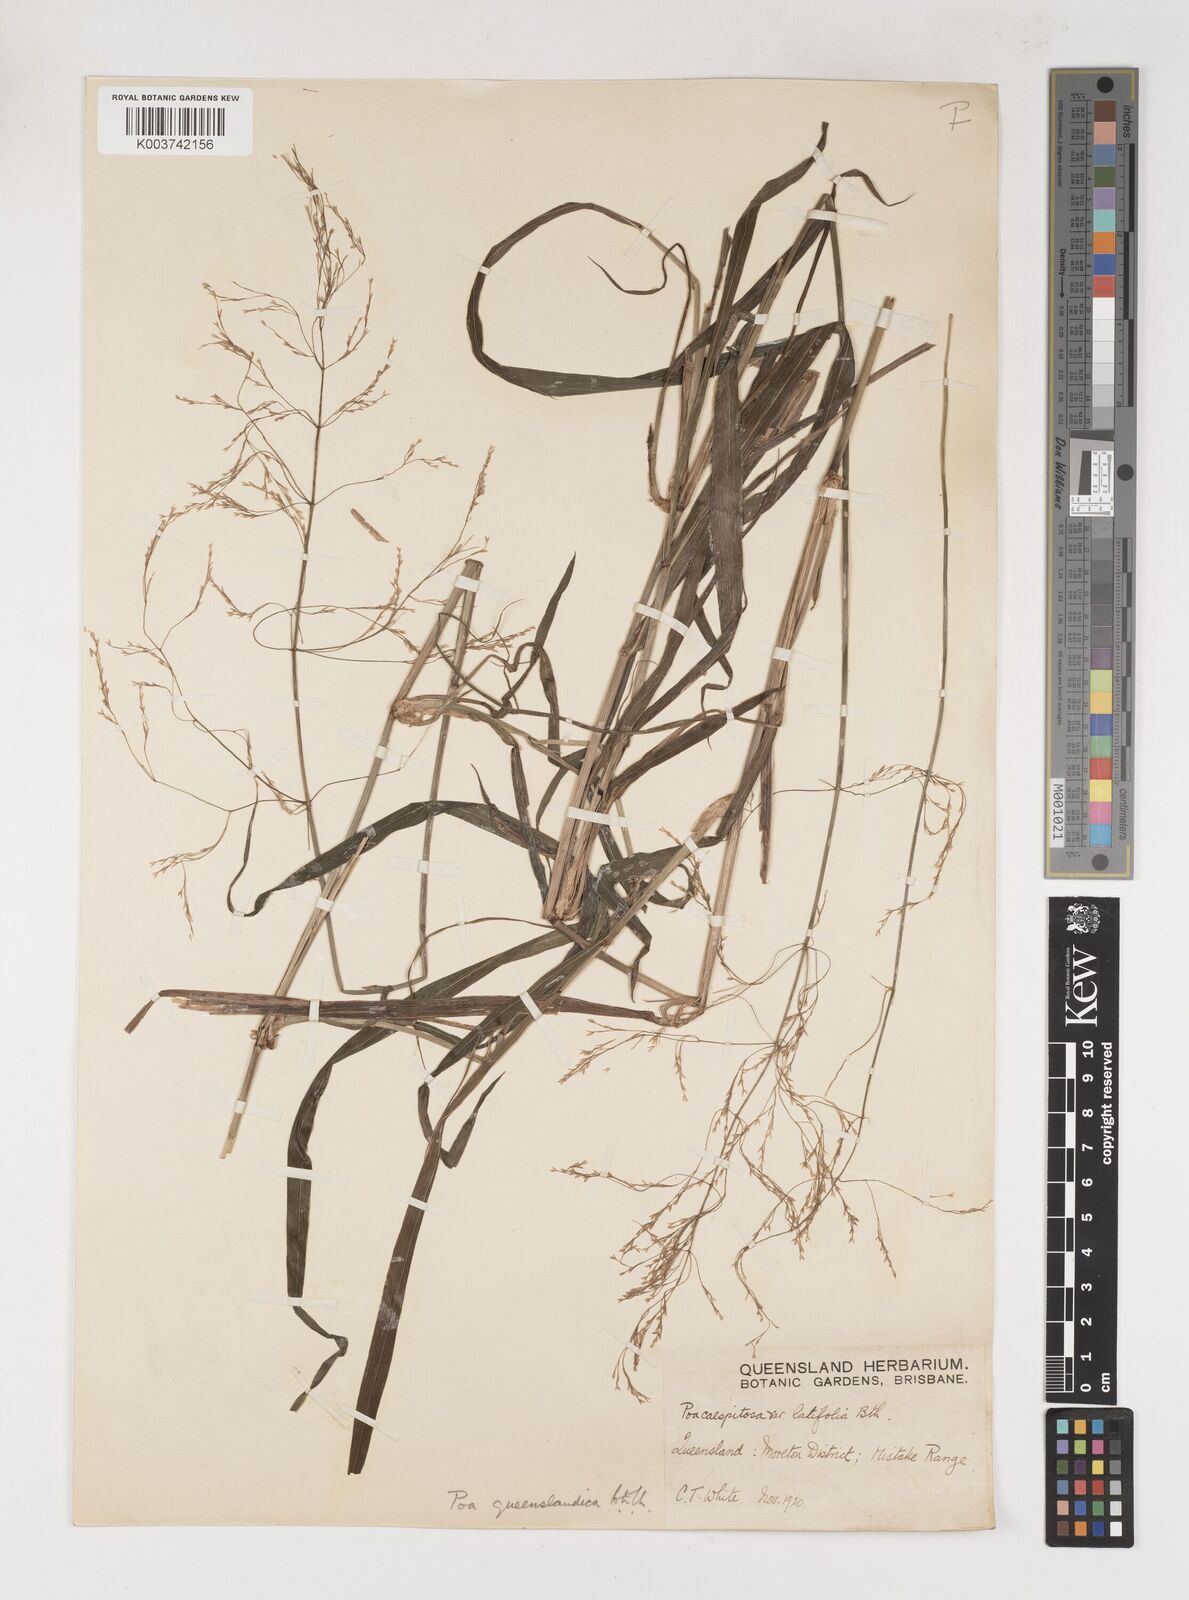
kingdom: Plantae
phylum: Tracheophyta
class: Liliopsida
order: Poales
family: Poaceae
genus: Sylvipoa
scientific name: Sylvipoa queenslandica
